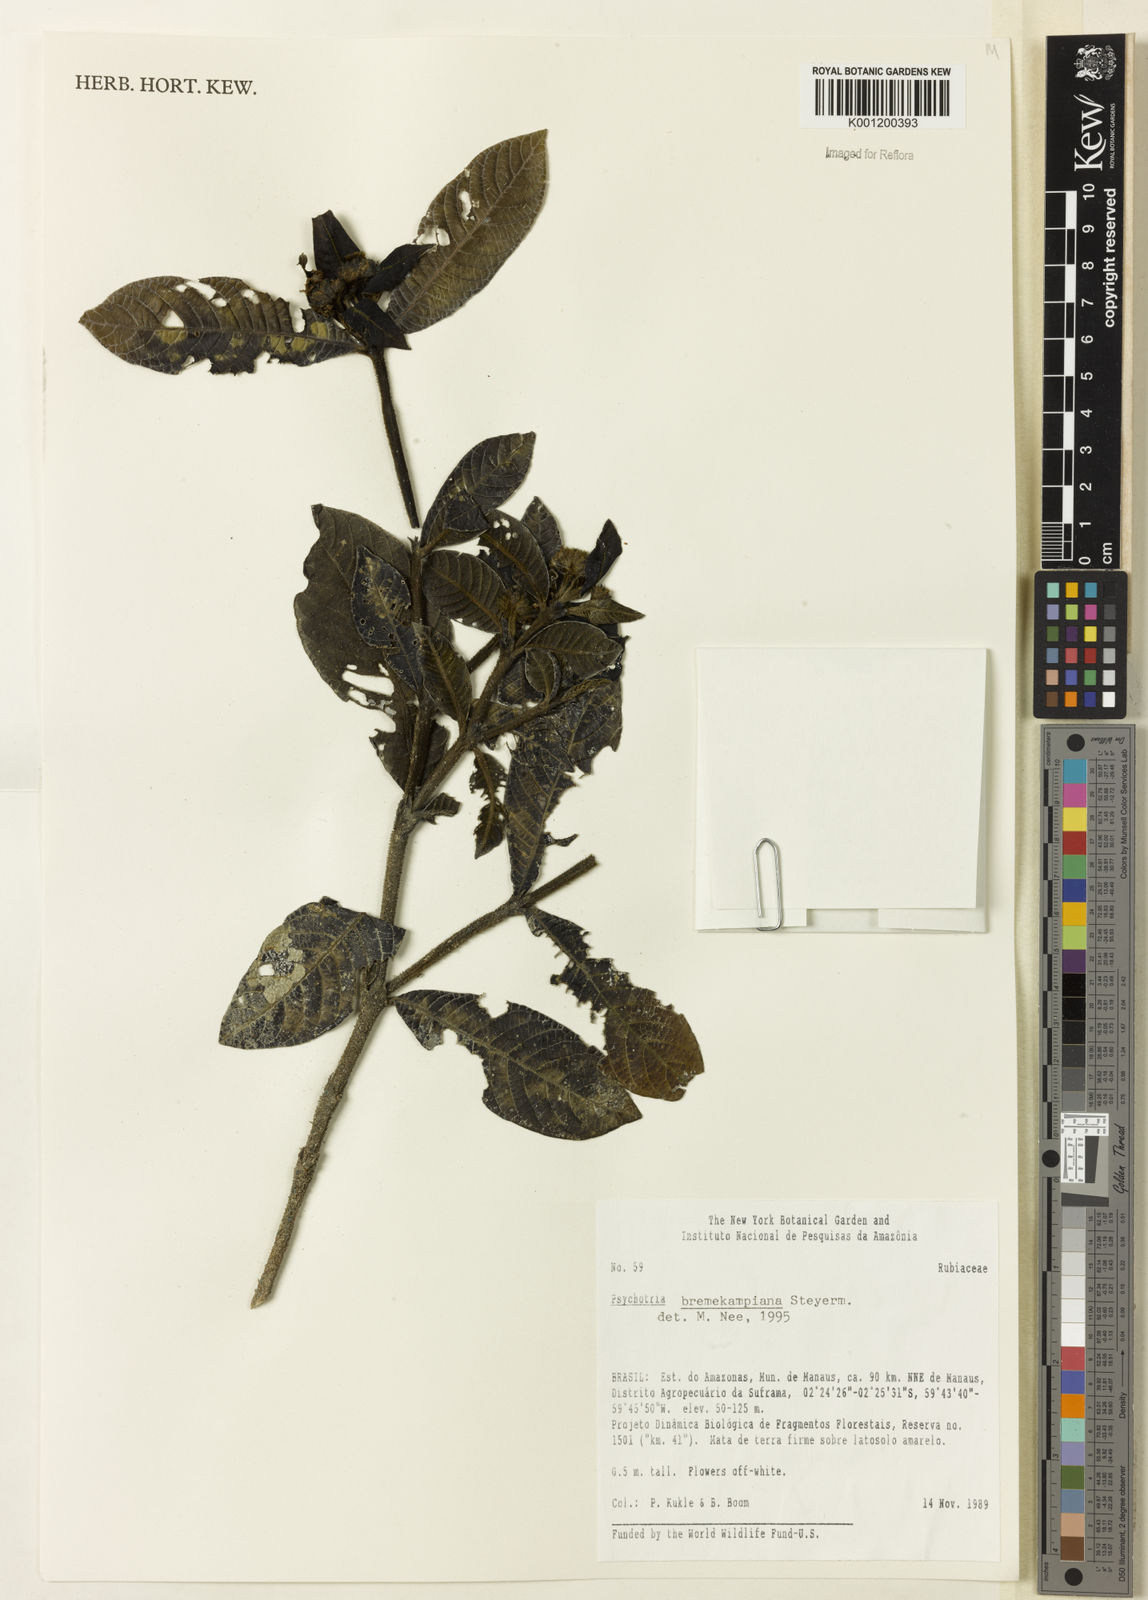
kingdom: Plantae
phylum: Tracheophyta
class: Magnoliopsida
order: Gentianales
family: Rubiaceae
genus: Palicourea
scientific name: Palicourea hirta
